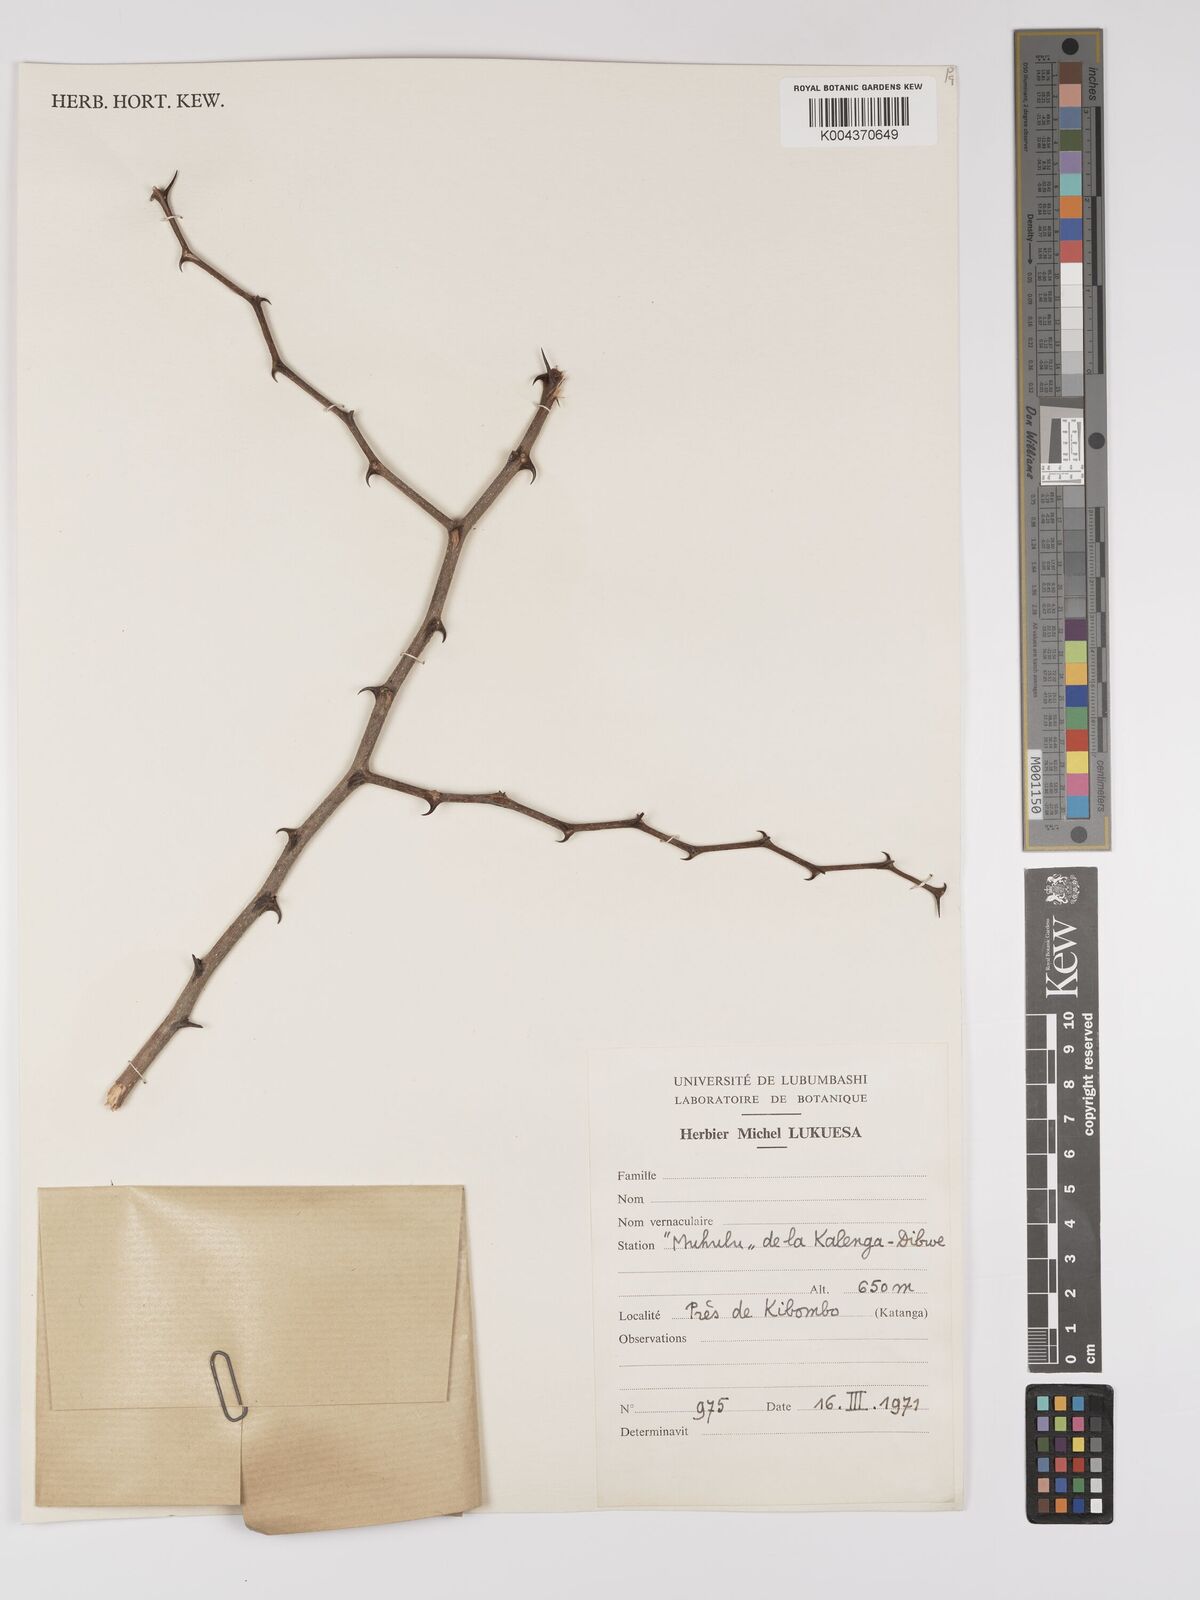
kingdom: Plantae
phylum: Tracheophyta
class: Magnoliopsida
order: Rosales
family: Rhamnaceae
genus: Ziziphus
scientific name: Ziziphus
